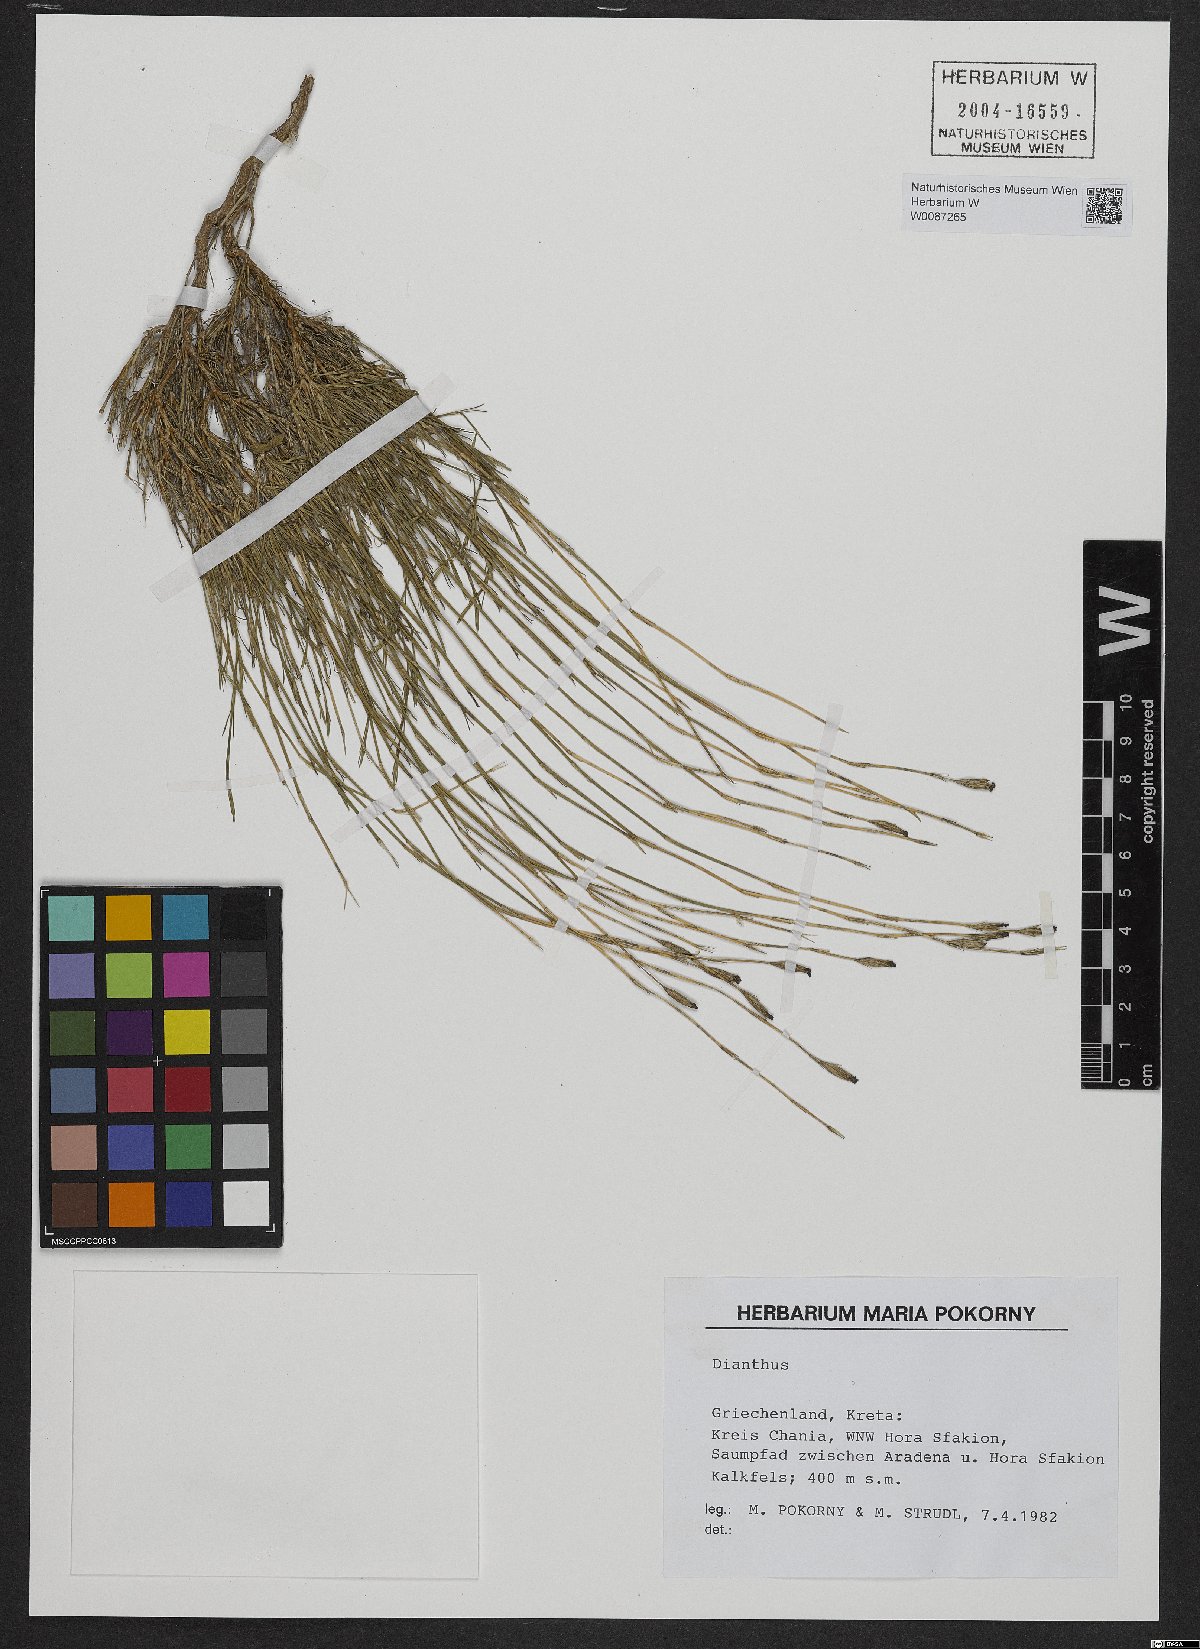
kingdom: Plantae
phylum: Tracheophyta
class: Magnoliopsida
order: Caryophyllales
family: Caryophyllaceae
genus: Dianthus
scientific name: Dianthus
